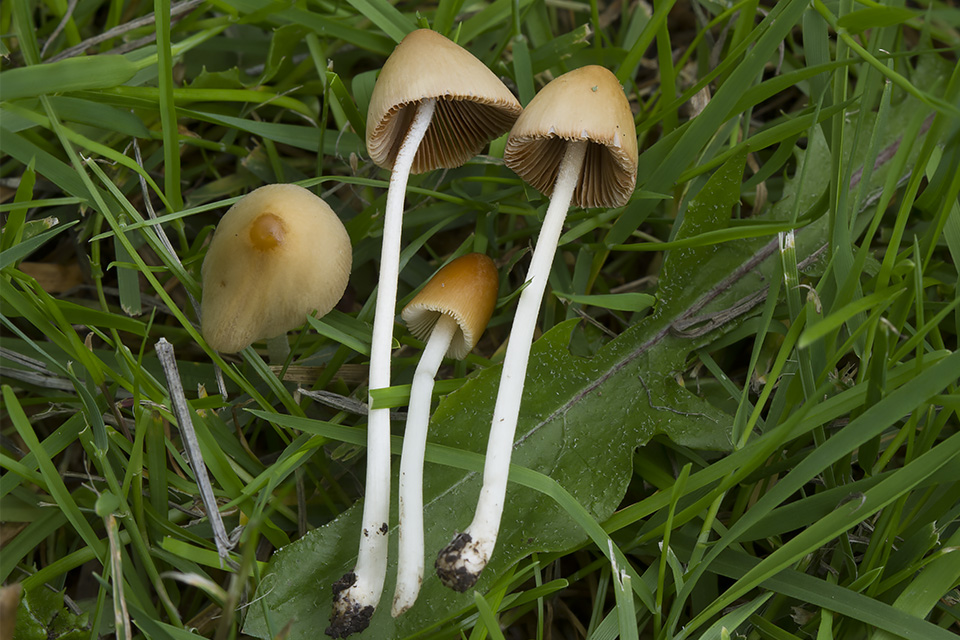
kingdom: Fungi
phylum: Basidiomycota
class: Agaricomycetes
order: Agaricales
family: Bolbitiaceae
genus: Conocybe
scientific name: Conocybe apala
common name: køllestokket keglehat
